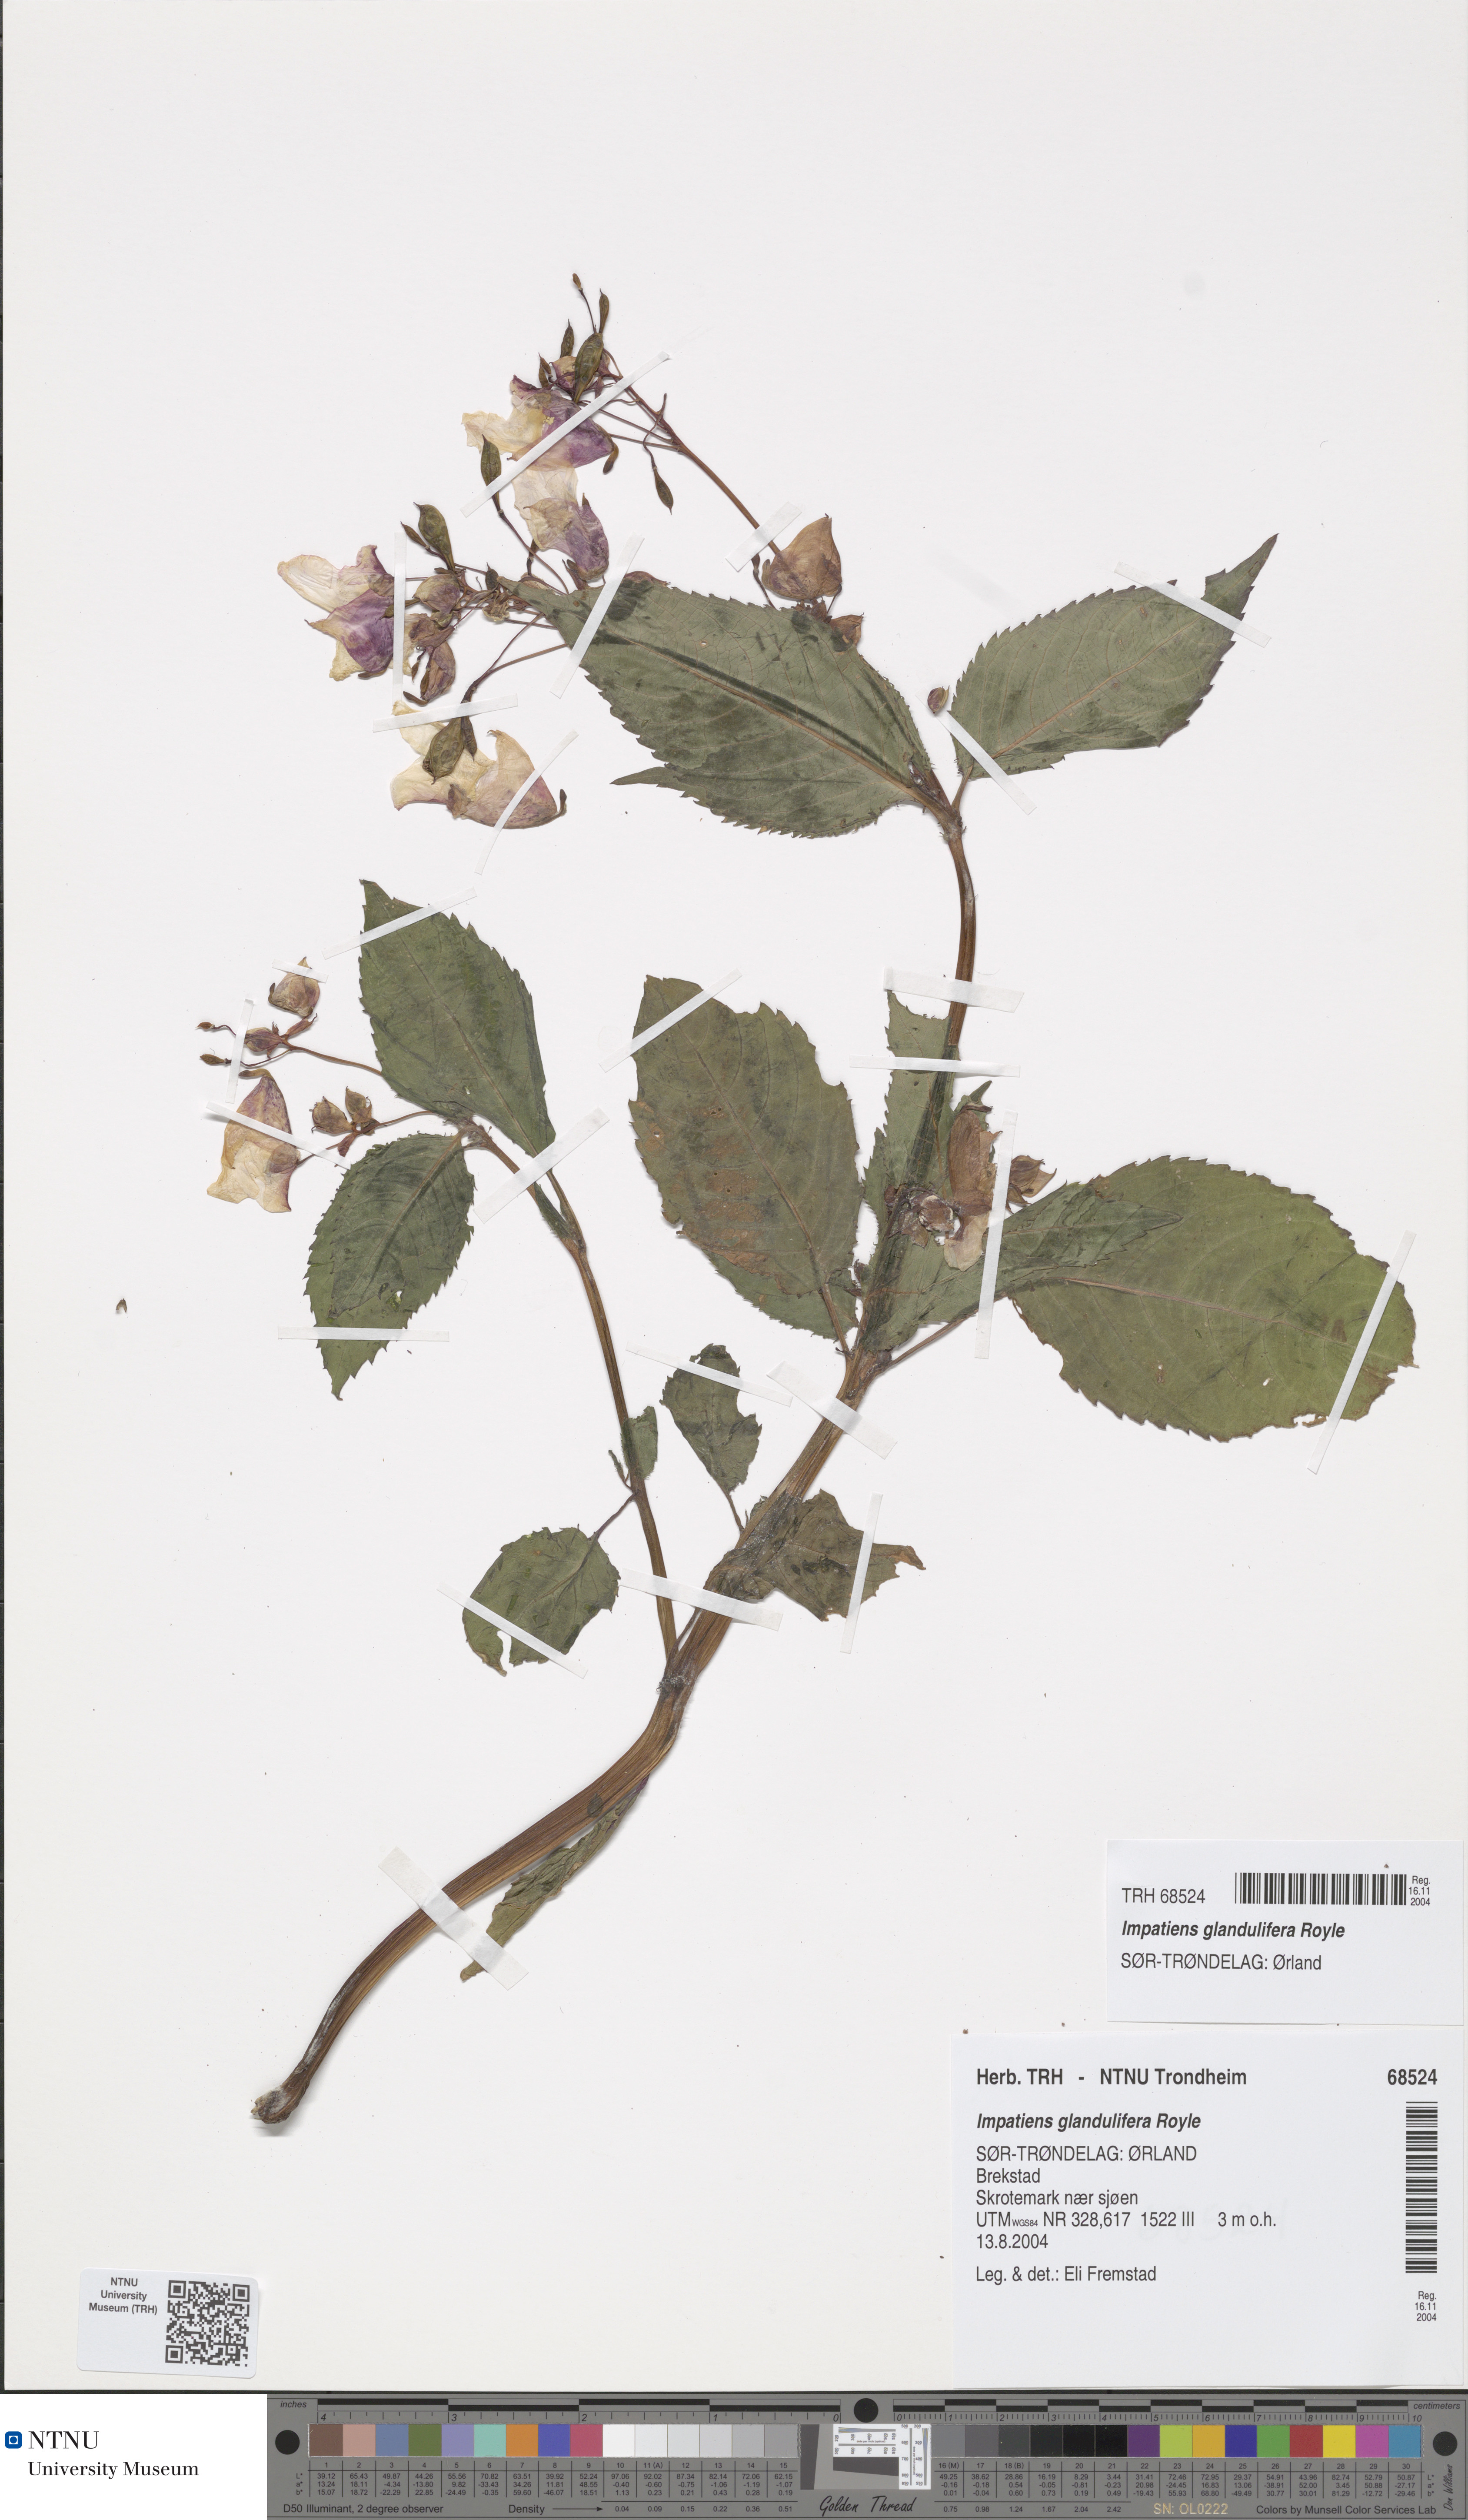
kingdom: Plantae
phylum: Tracheophyta
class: Magnoliopsida
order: Ericales
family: Balsaminaceae
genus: Impatiens
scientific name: Impatiens glandulifera
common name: Himalayan balsam
